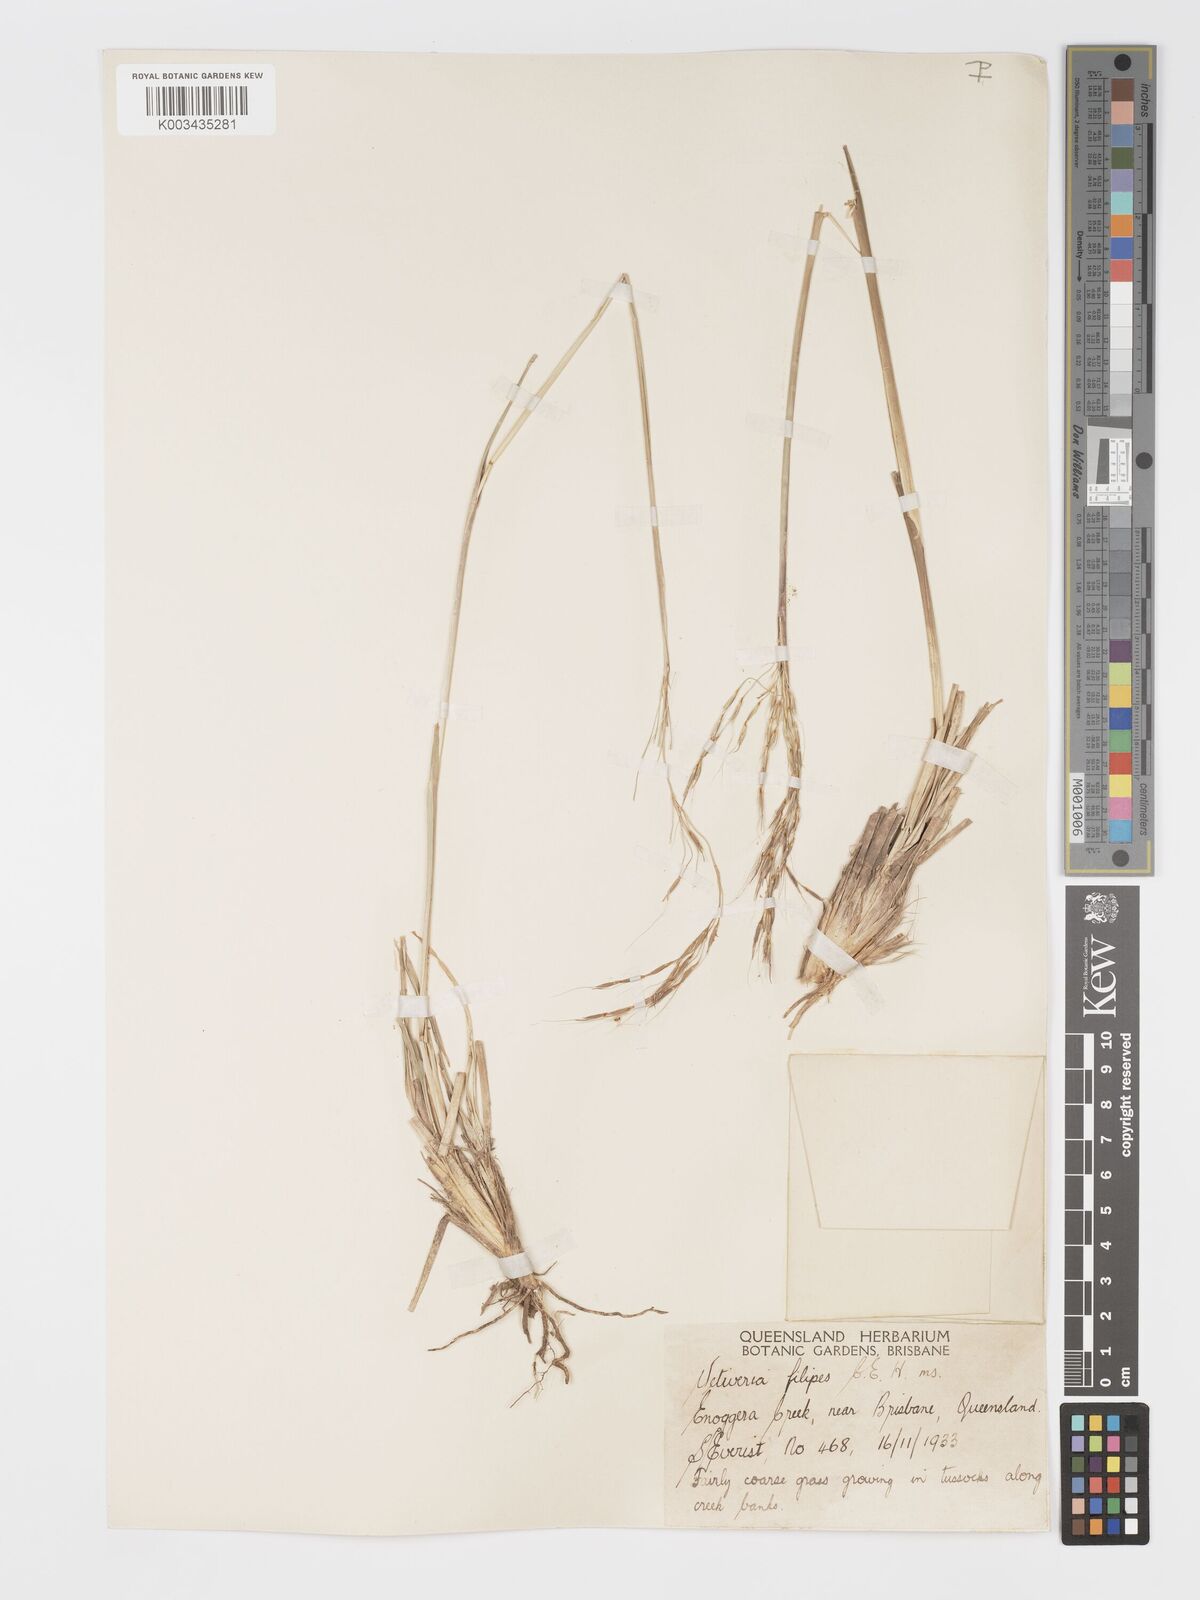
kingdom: Plantae
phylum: Tracheophyta
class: Liliopsida
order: Poales
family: Poaceae
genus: Chrysopogon
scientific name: Chrysopogon filipes
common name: Australian vetiver
